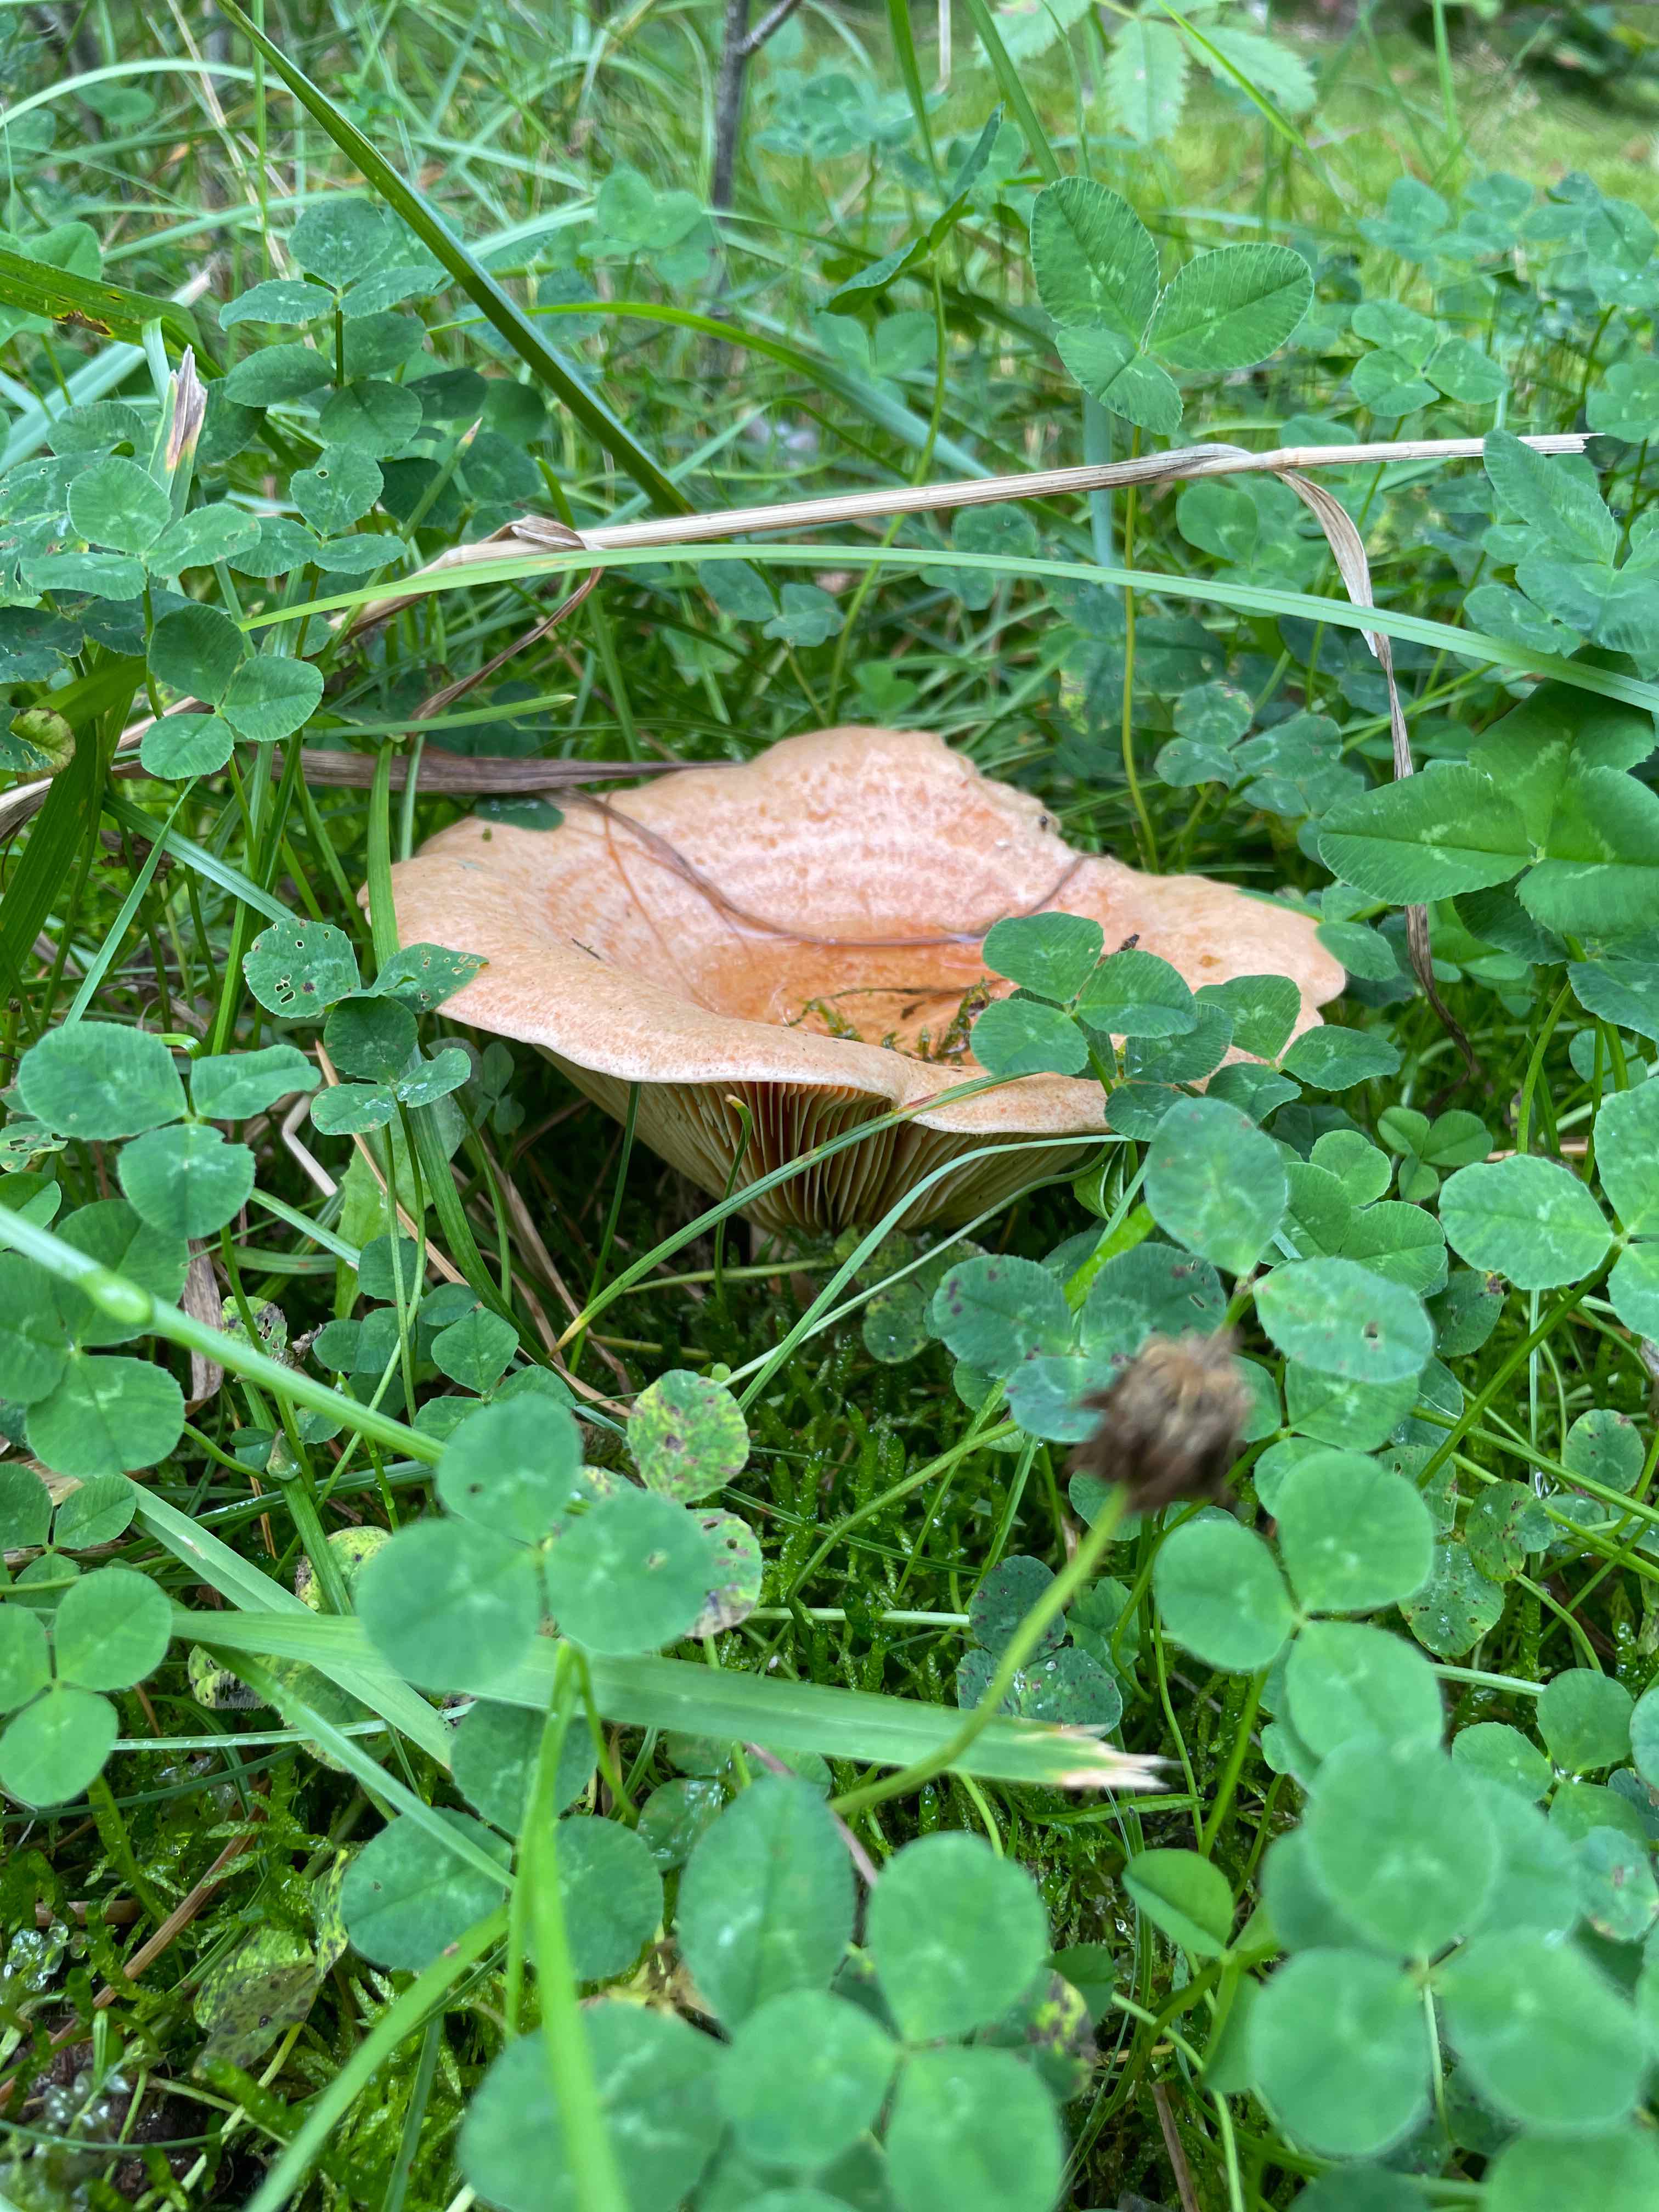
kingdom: Fungi
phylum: Basidiomycota
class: Agaricomycetes
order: Russulales
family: Russulaceae
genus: Lactarius
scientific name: Lactarius deliciosus
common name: velsmagende mælkehat
